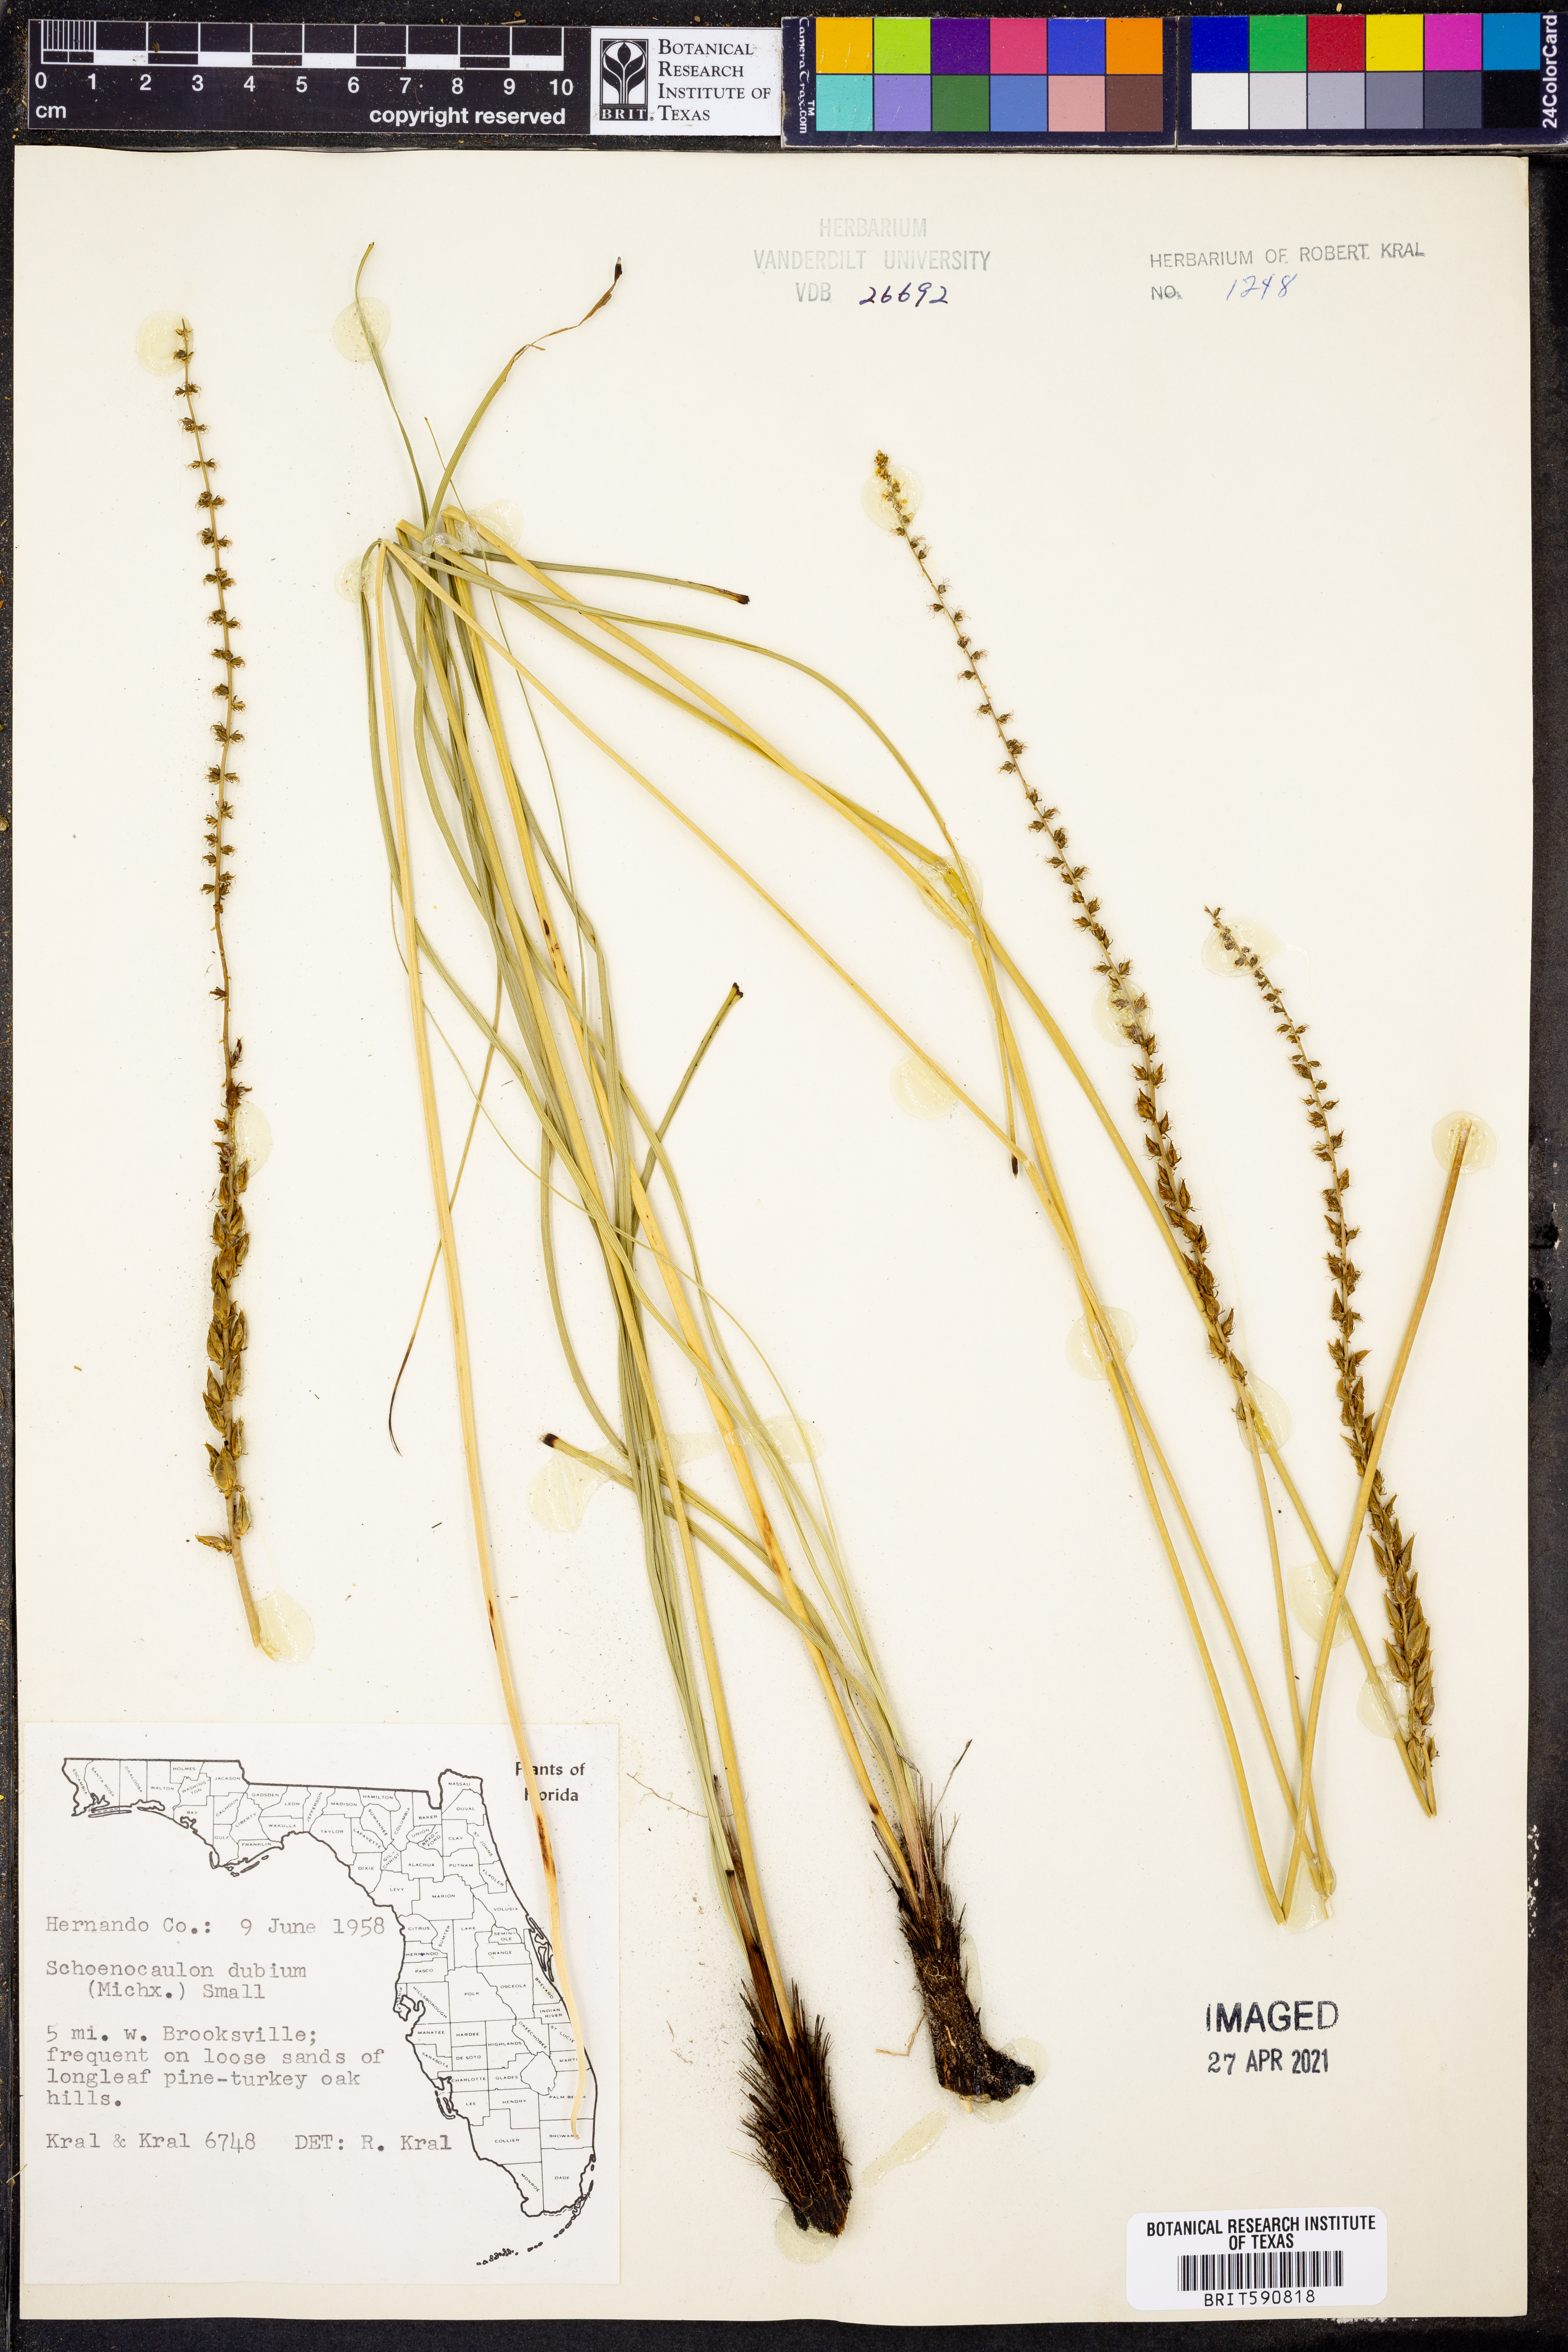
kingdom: Plantae
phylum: Tracheophyta
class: Liliopsida
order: Liliales
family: Melanthiaceae
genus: Schoenocaulon
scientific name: Schoenocaulon dubium
